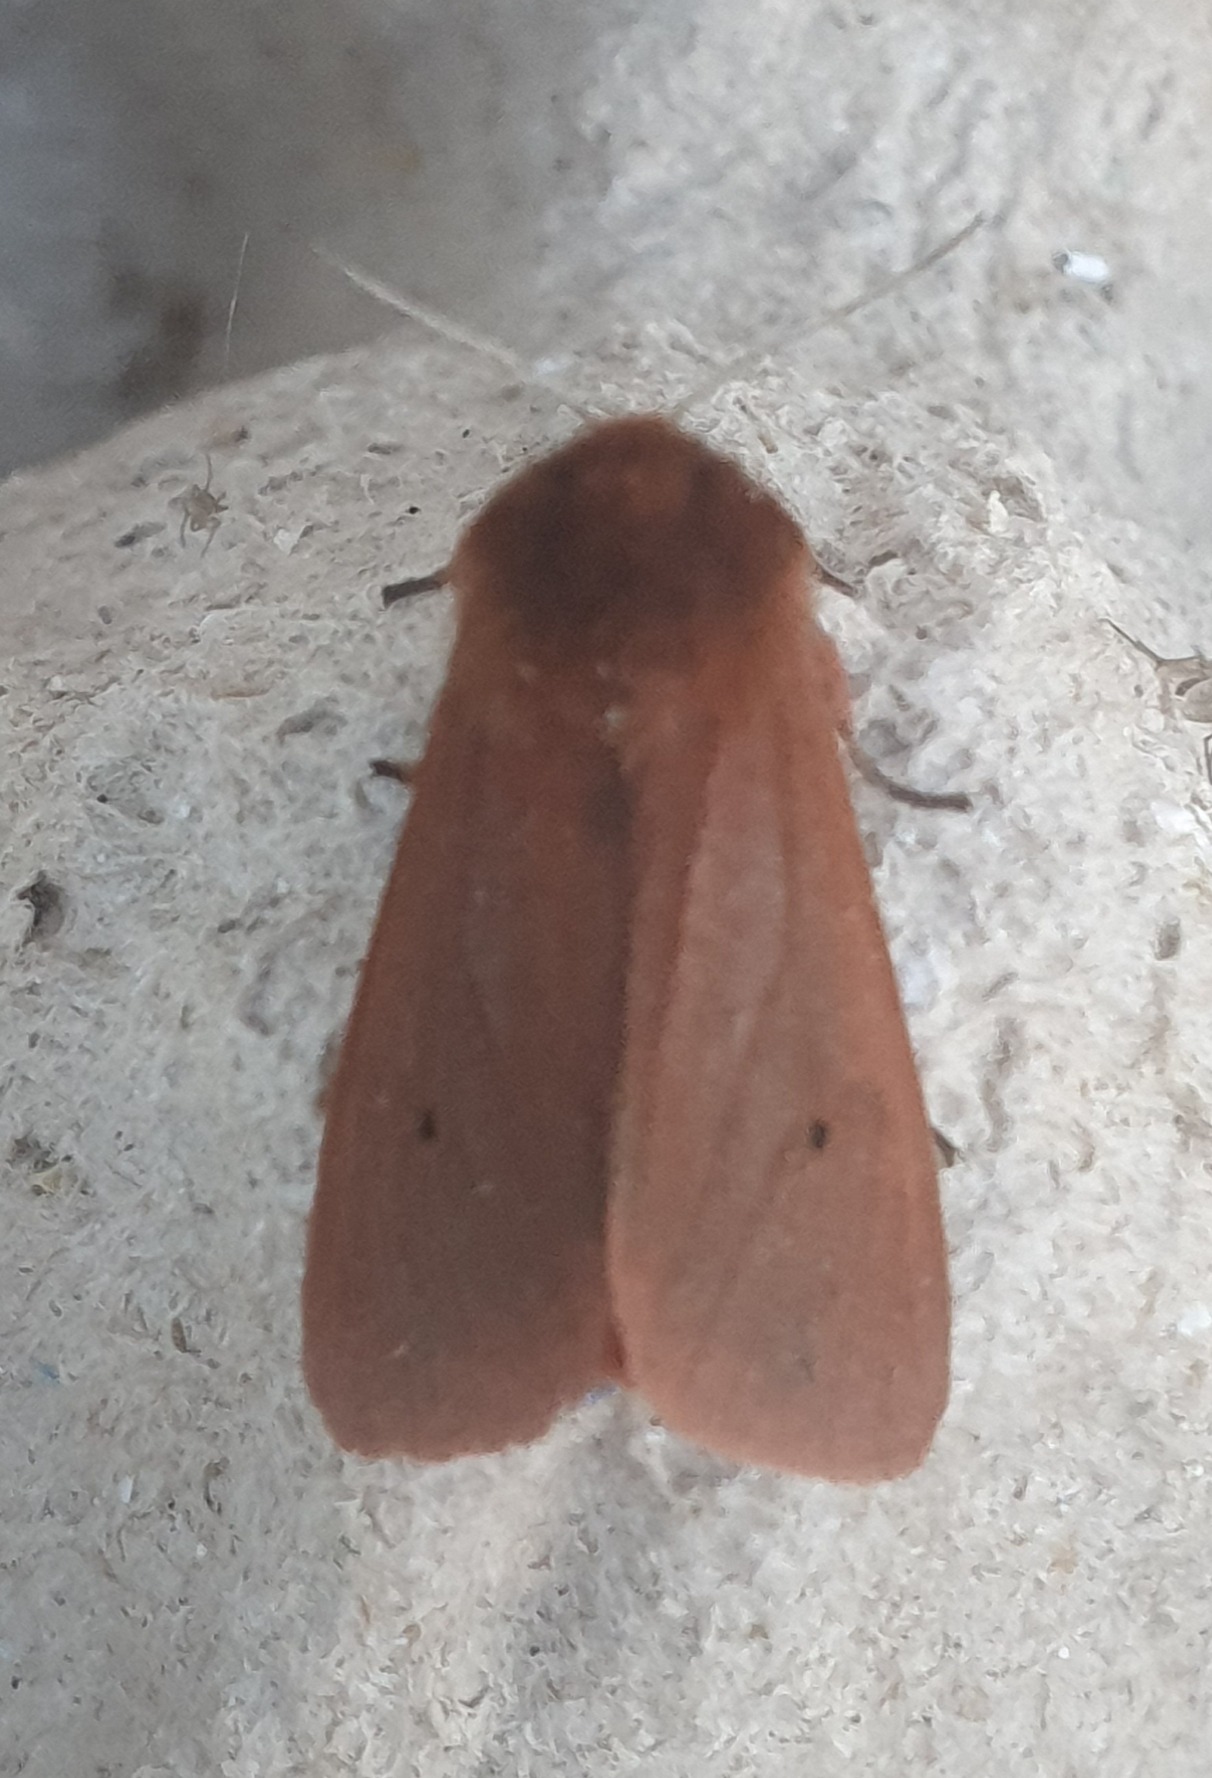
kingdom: Animalia
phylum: Arthropoda
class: Insecta
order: Lepidoptera
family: Erebidae
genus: Phragmatobia
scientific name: Phragmatobia fuliginosa
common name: Kanelbjørn
